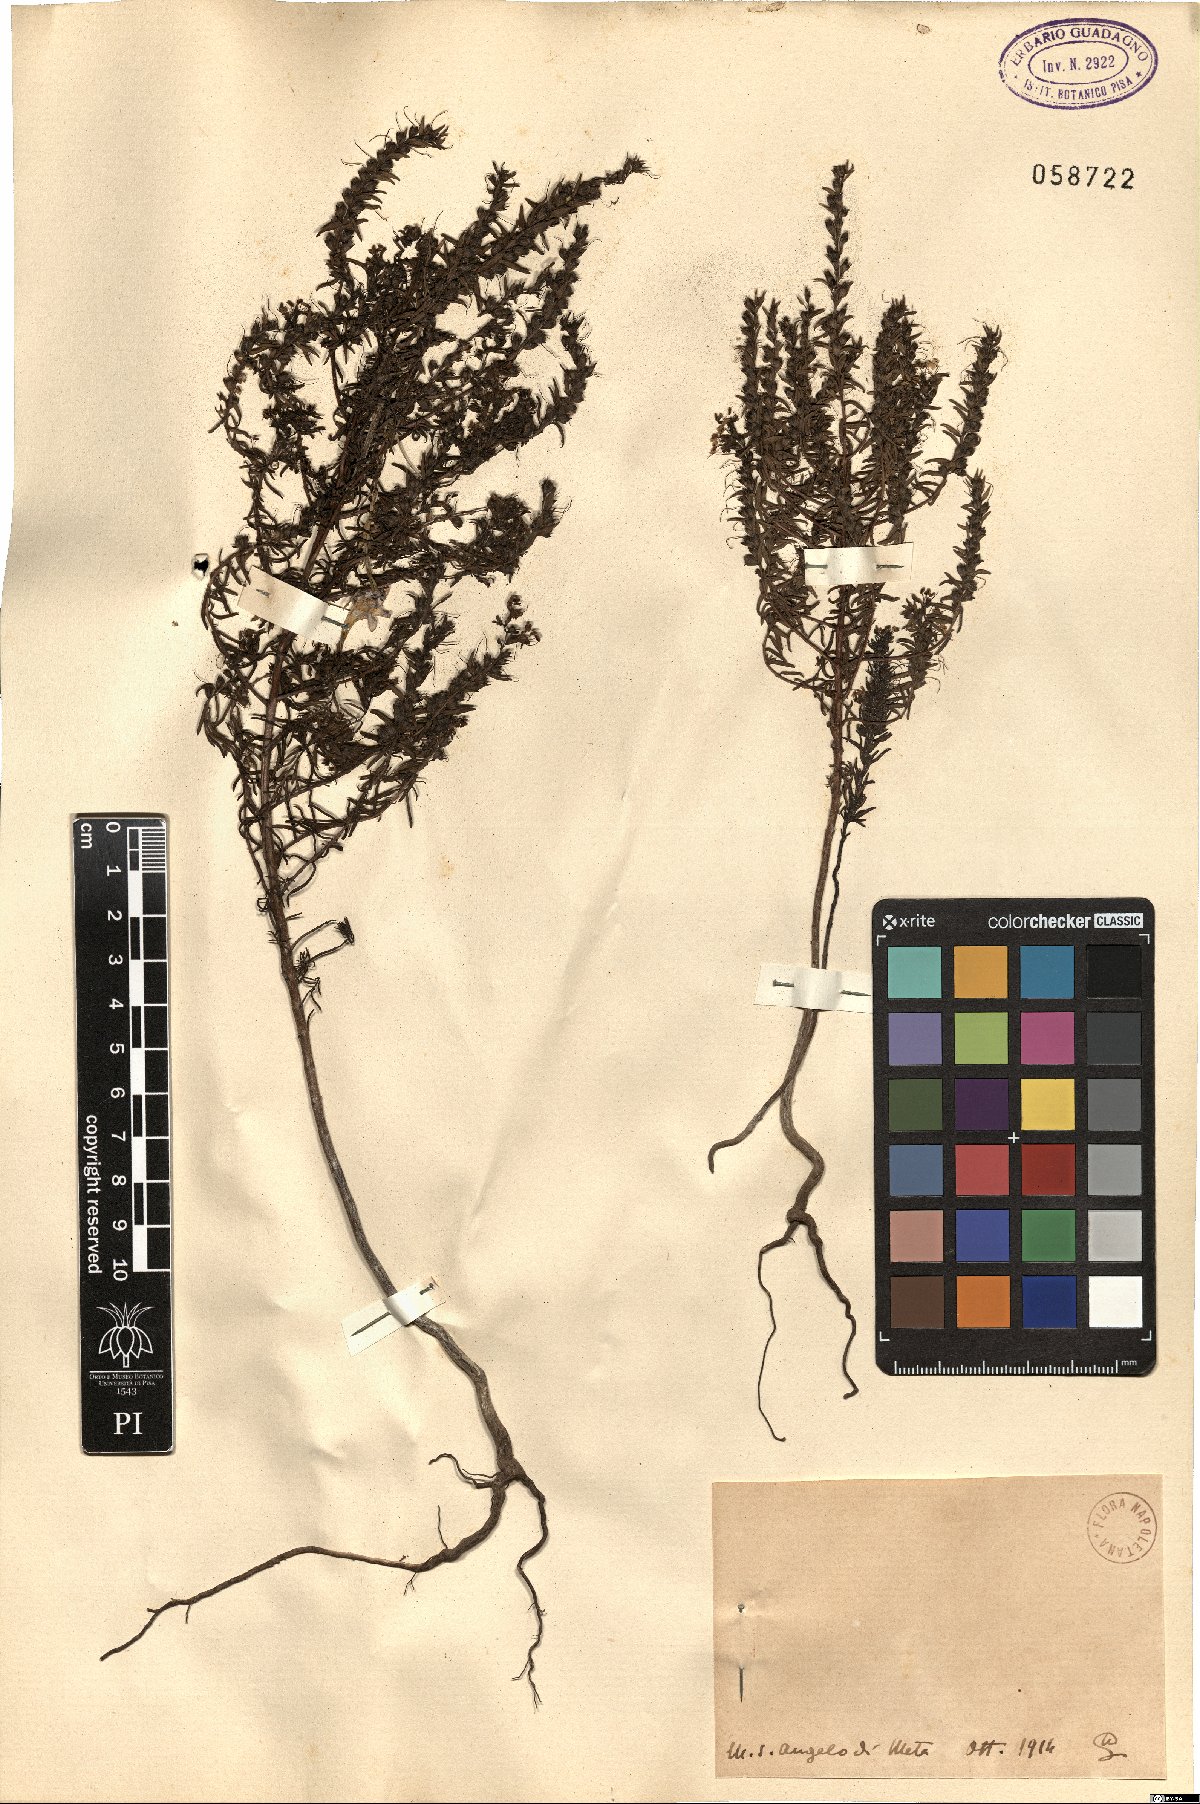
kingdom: Plantae
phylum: Tracheophyta
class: Magnoliopsida
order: Lamiales
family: Orobanchaceae
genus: Bartsia
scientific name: Bartsia
